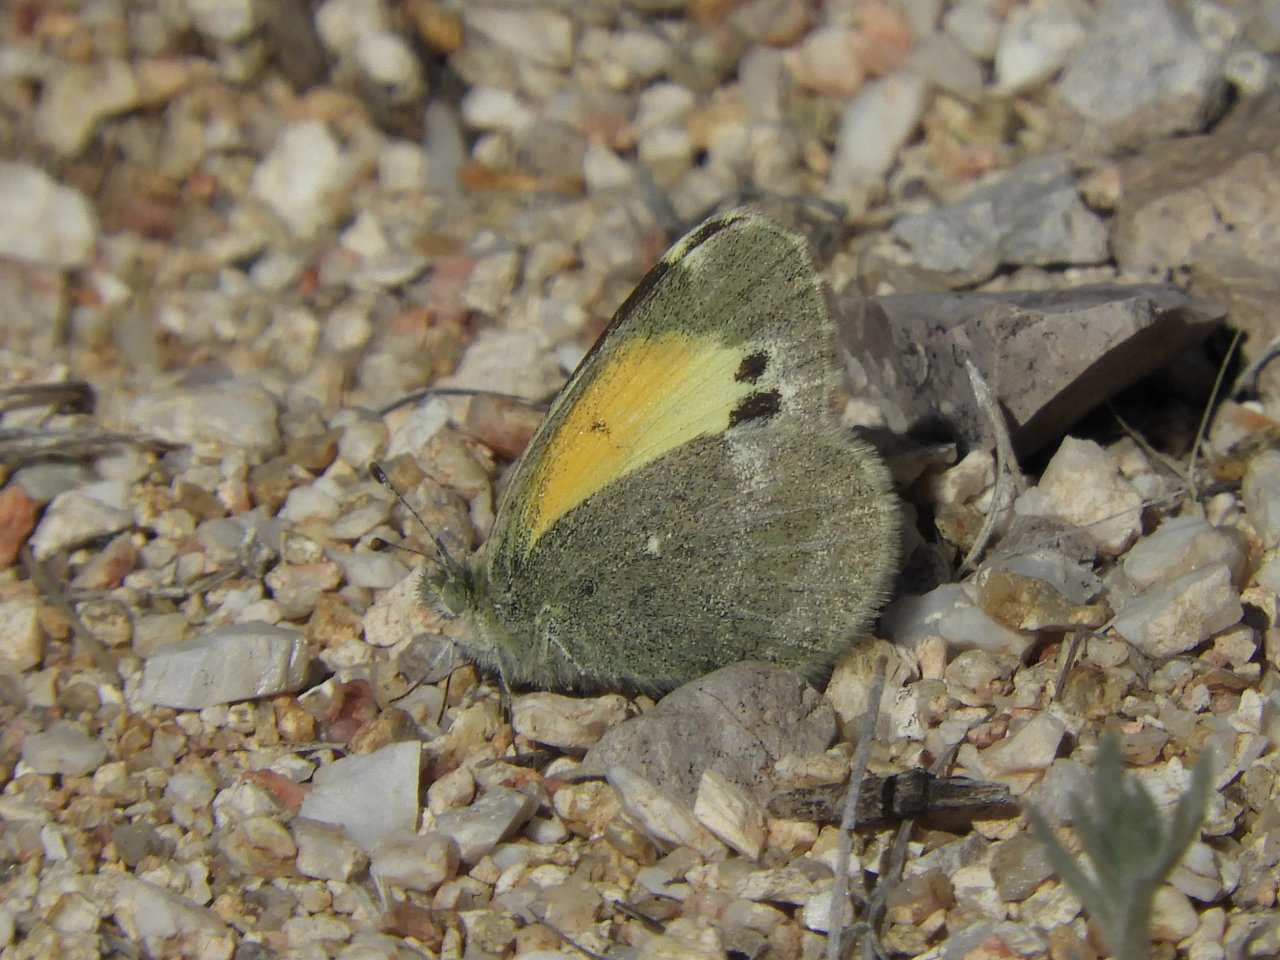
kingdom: Animalia
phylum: Arthropoda
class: Insecta
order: Lepidoptera
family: Pieridae
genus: Nathalis
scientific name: Nathalis iole
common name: Dainty Sulphur
